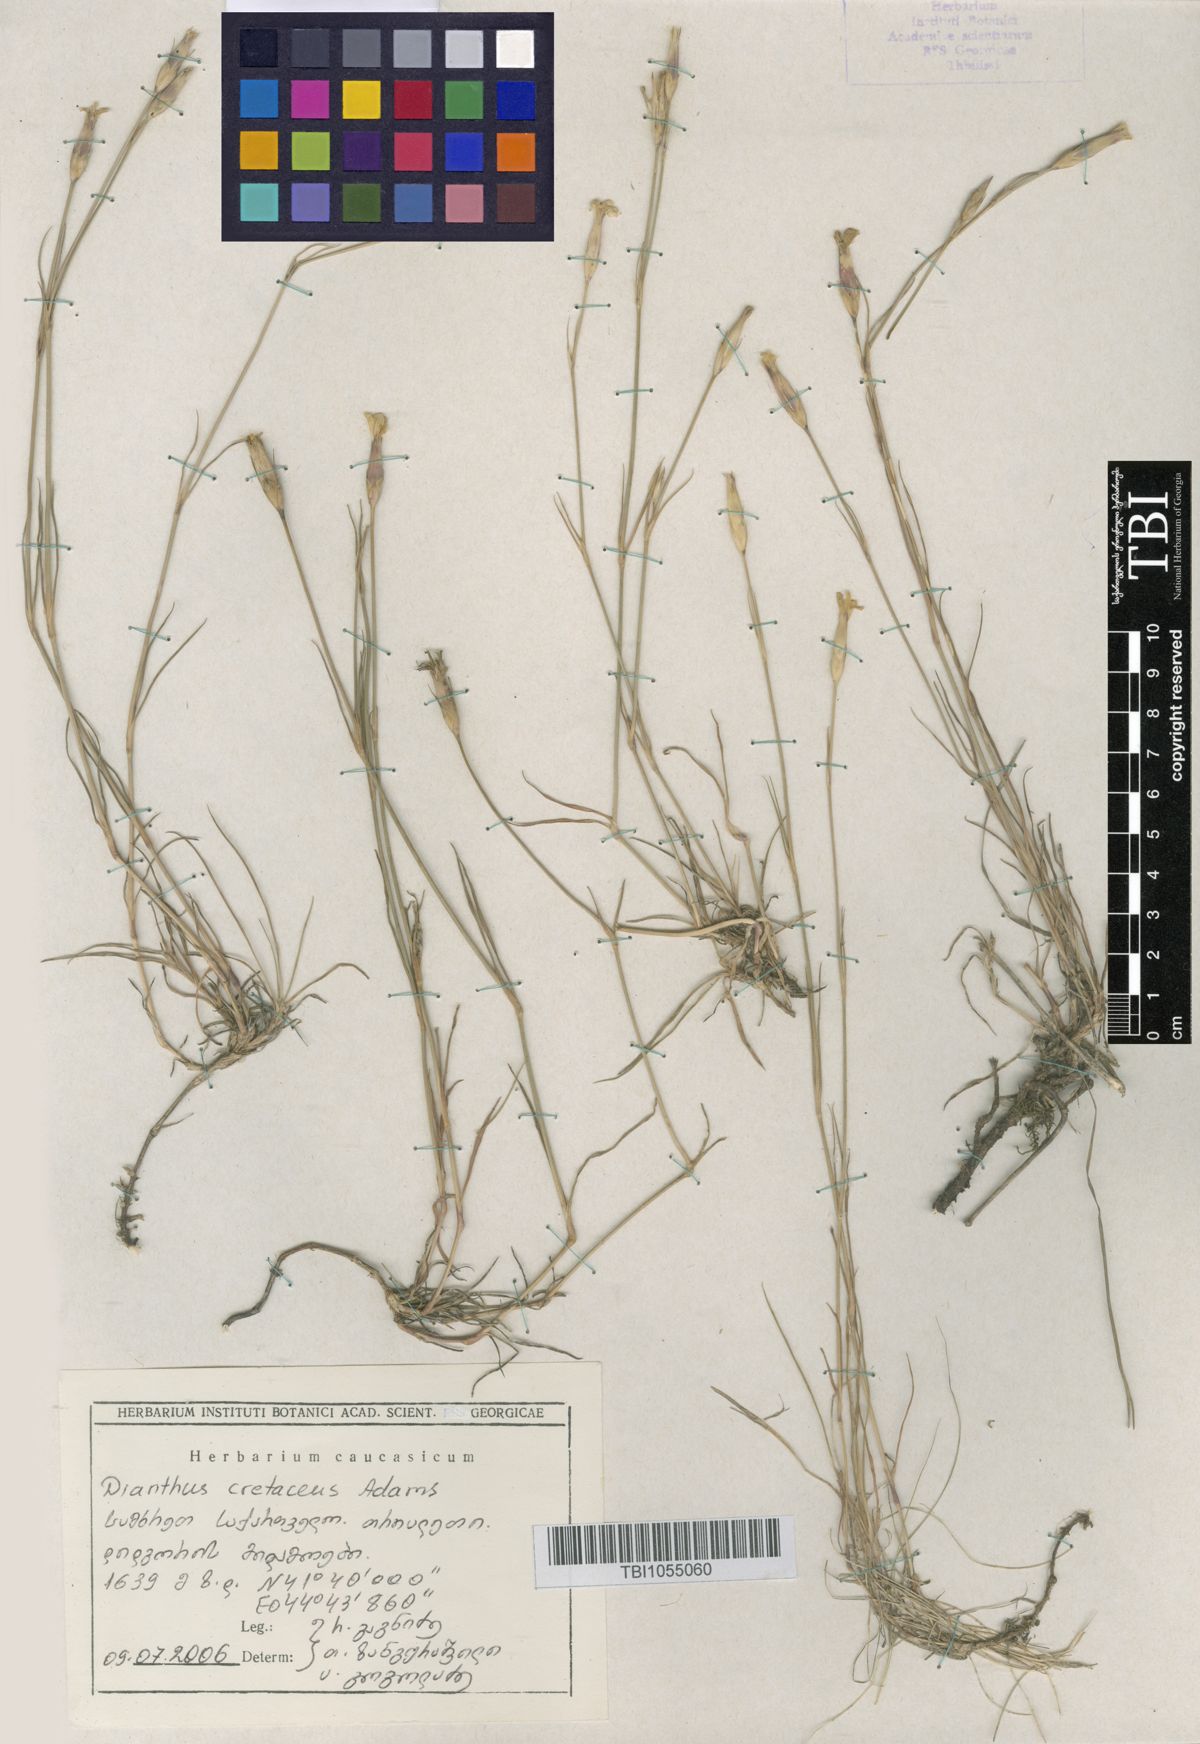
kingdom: Plantae
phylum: Tracheophyta
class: Magnoliopsida
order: Caryophyllales
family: Caryophyllaceae
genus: Dianthus
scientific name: Dianthus cretaceus
